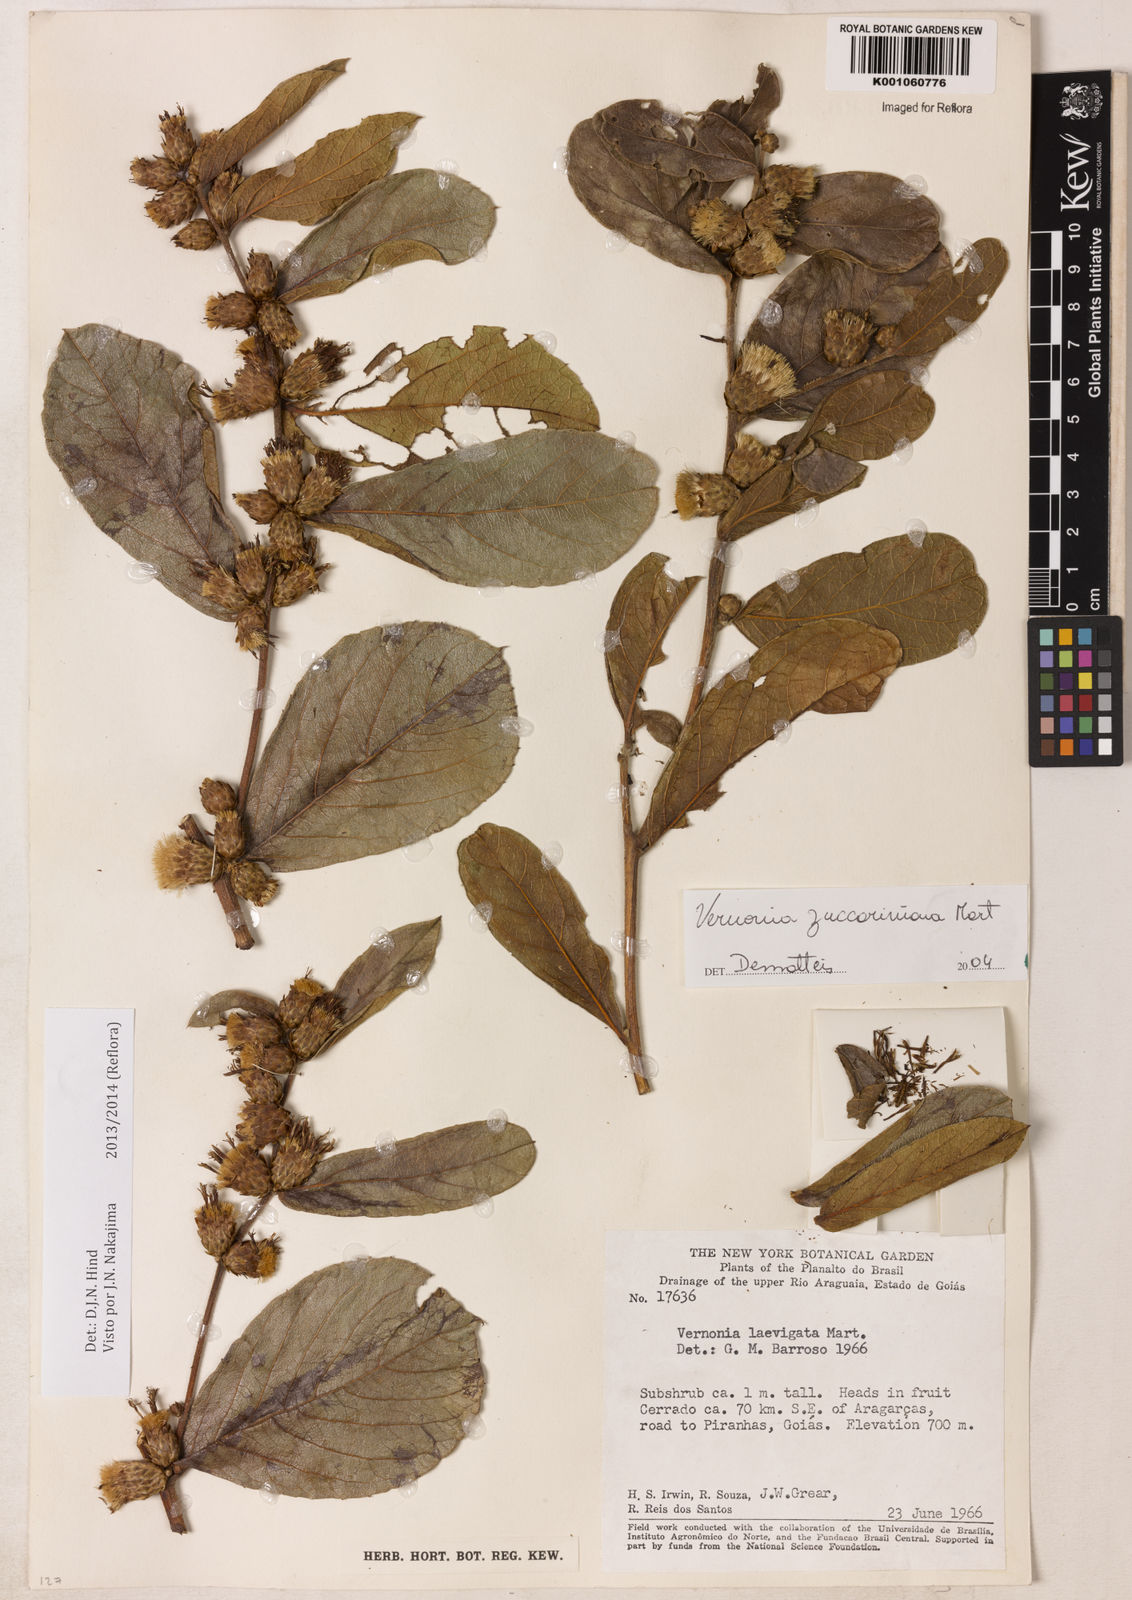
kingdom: Plantae
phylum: Tracheophyta
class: Magnoliopsida
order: Asterales
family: Asteraceae
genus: Lessingianthus
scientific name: Lessingianthus zuccarinianus
